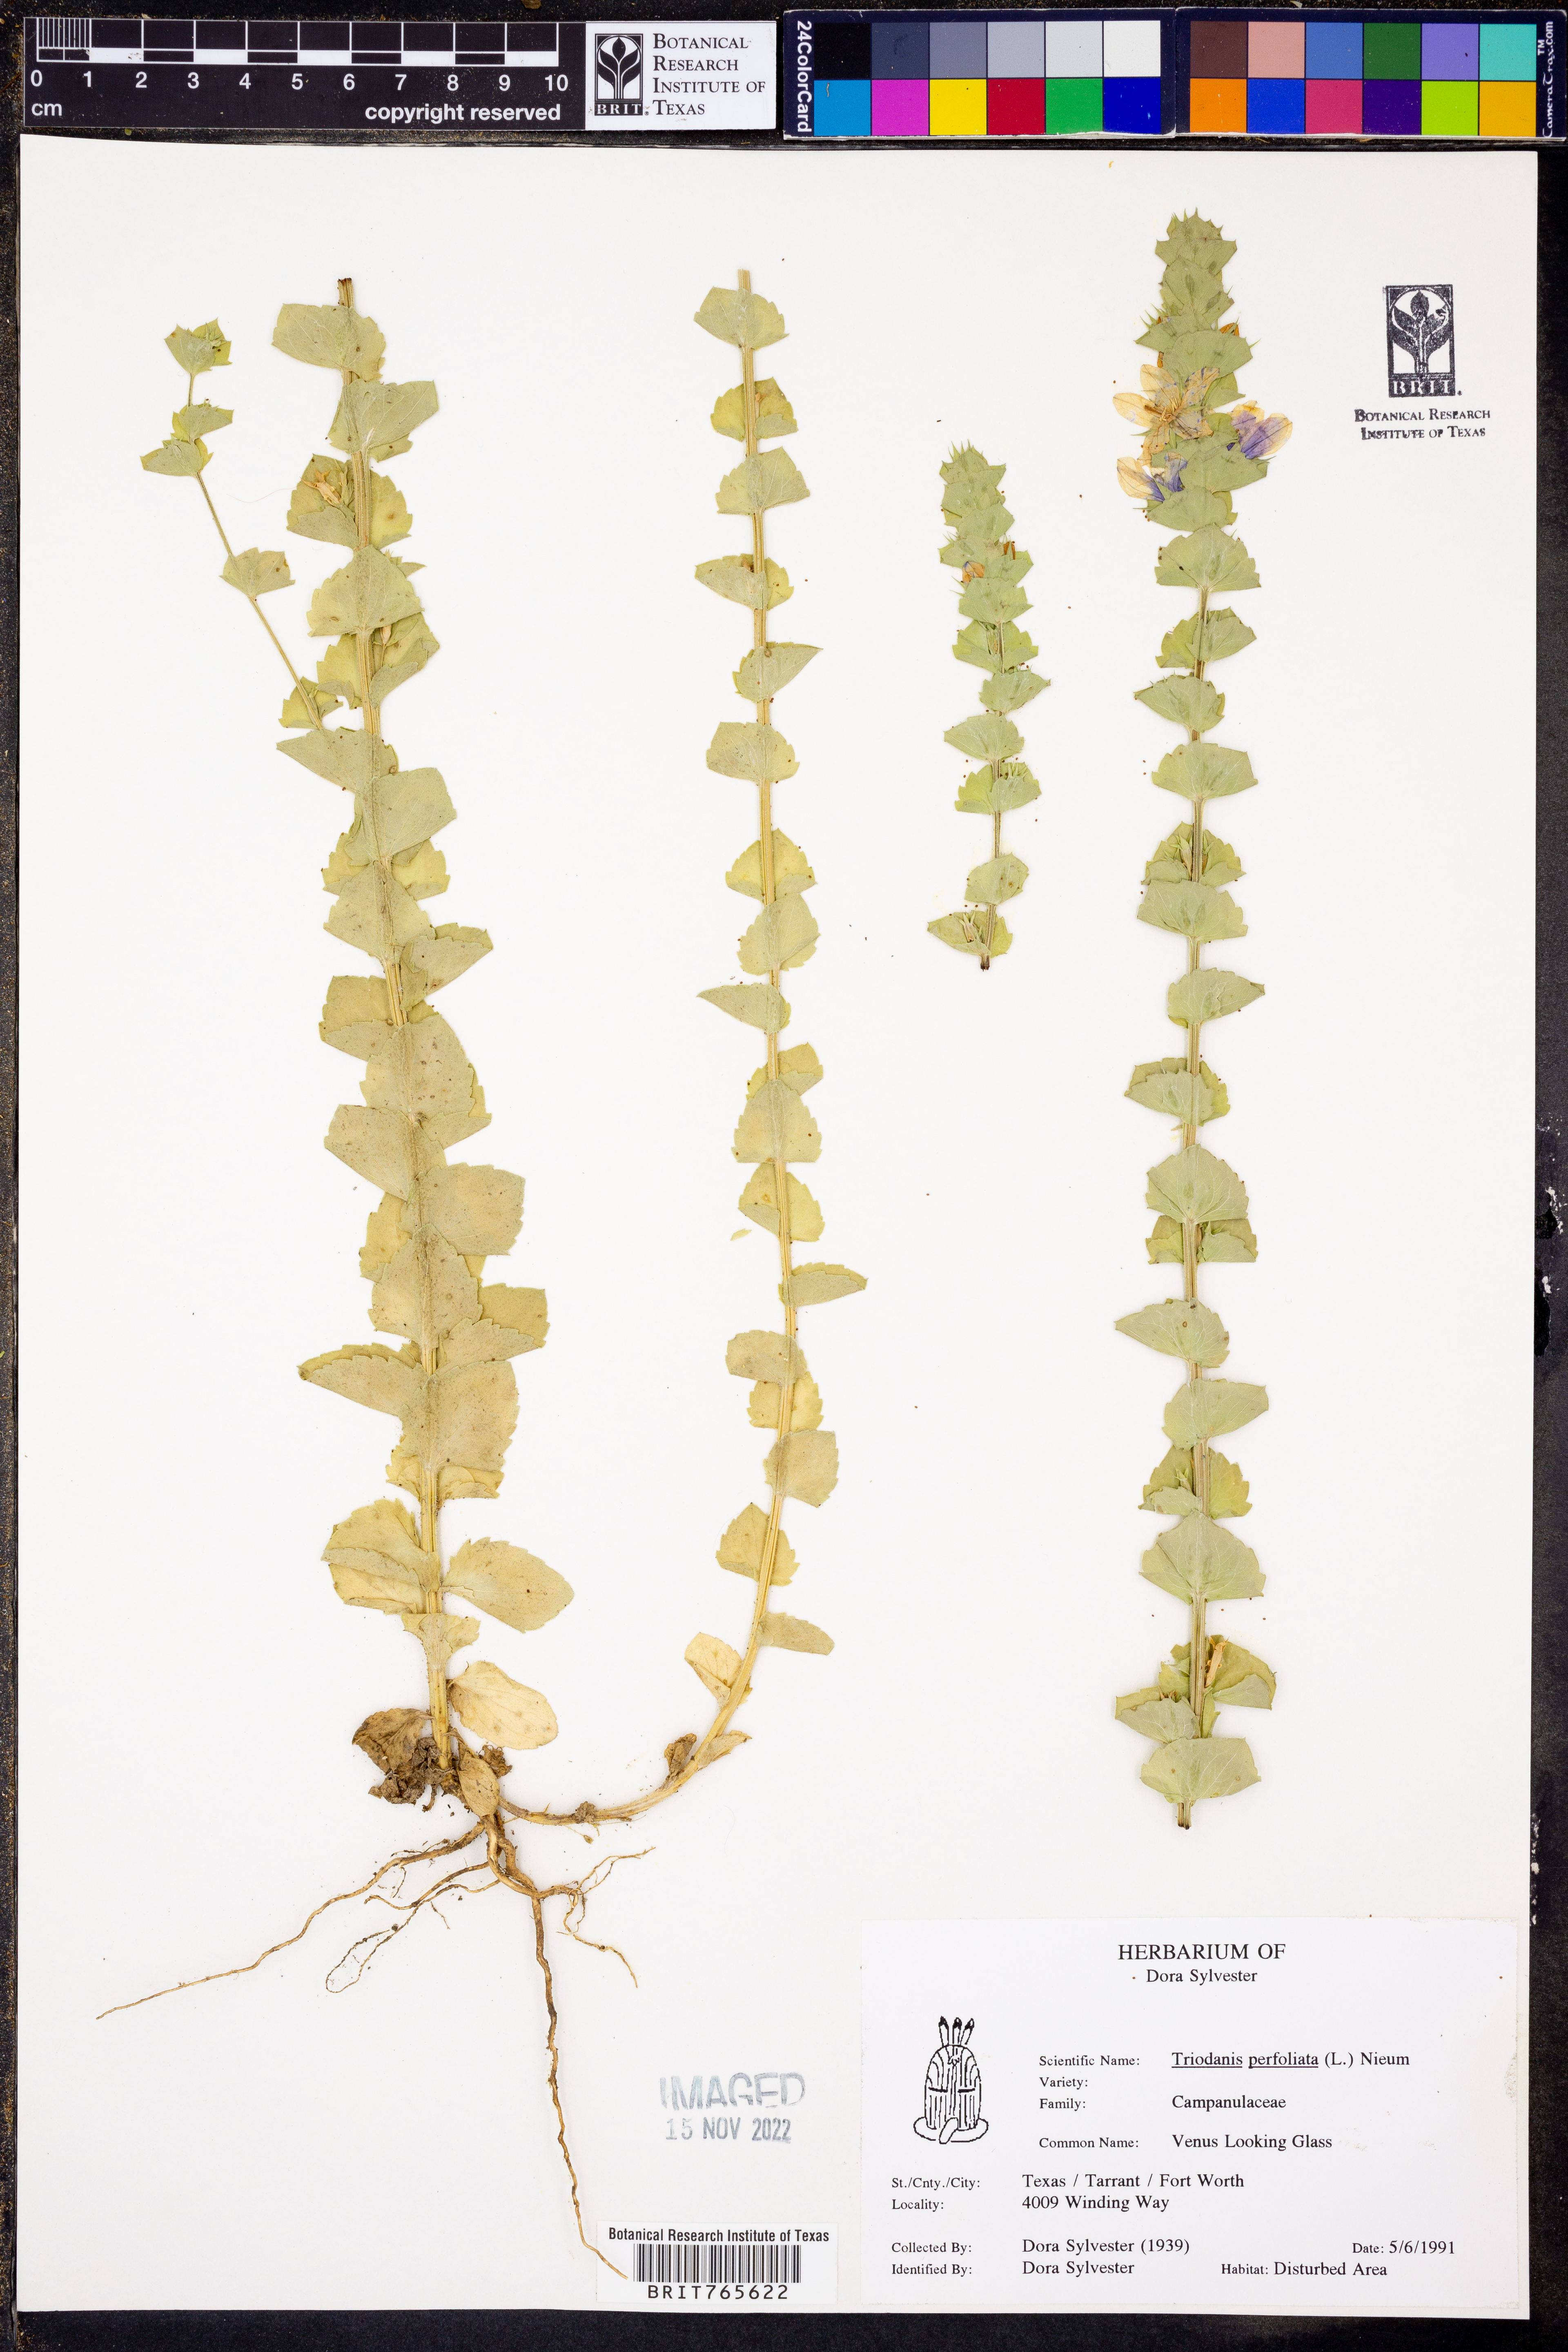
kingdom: Plantae
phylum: Tracheophyta
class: Magnoliopsida
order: Asterales
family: Campanulaceae
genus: Triodanis
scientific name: Triodanis perfoliata
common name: Clasping venus' looking-glass
